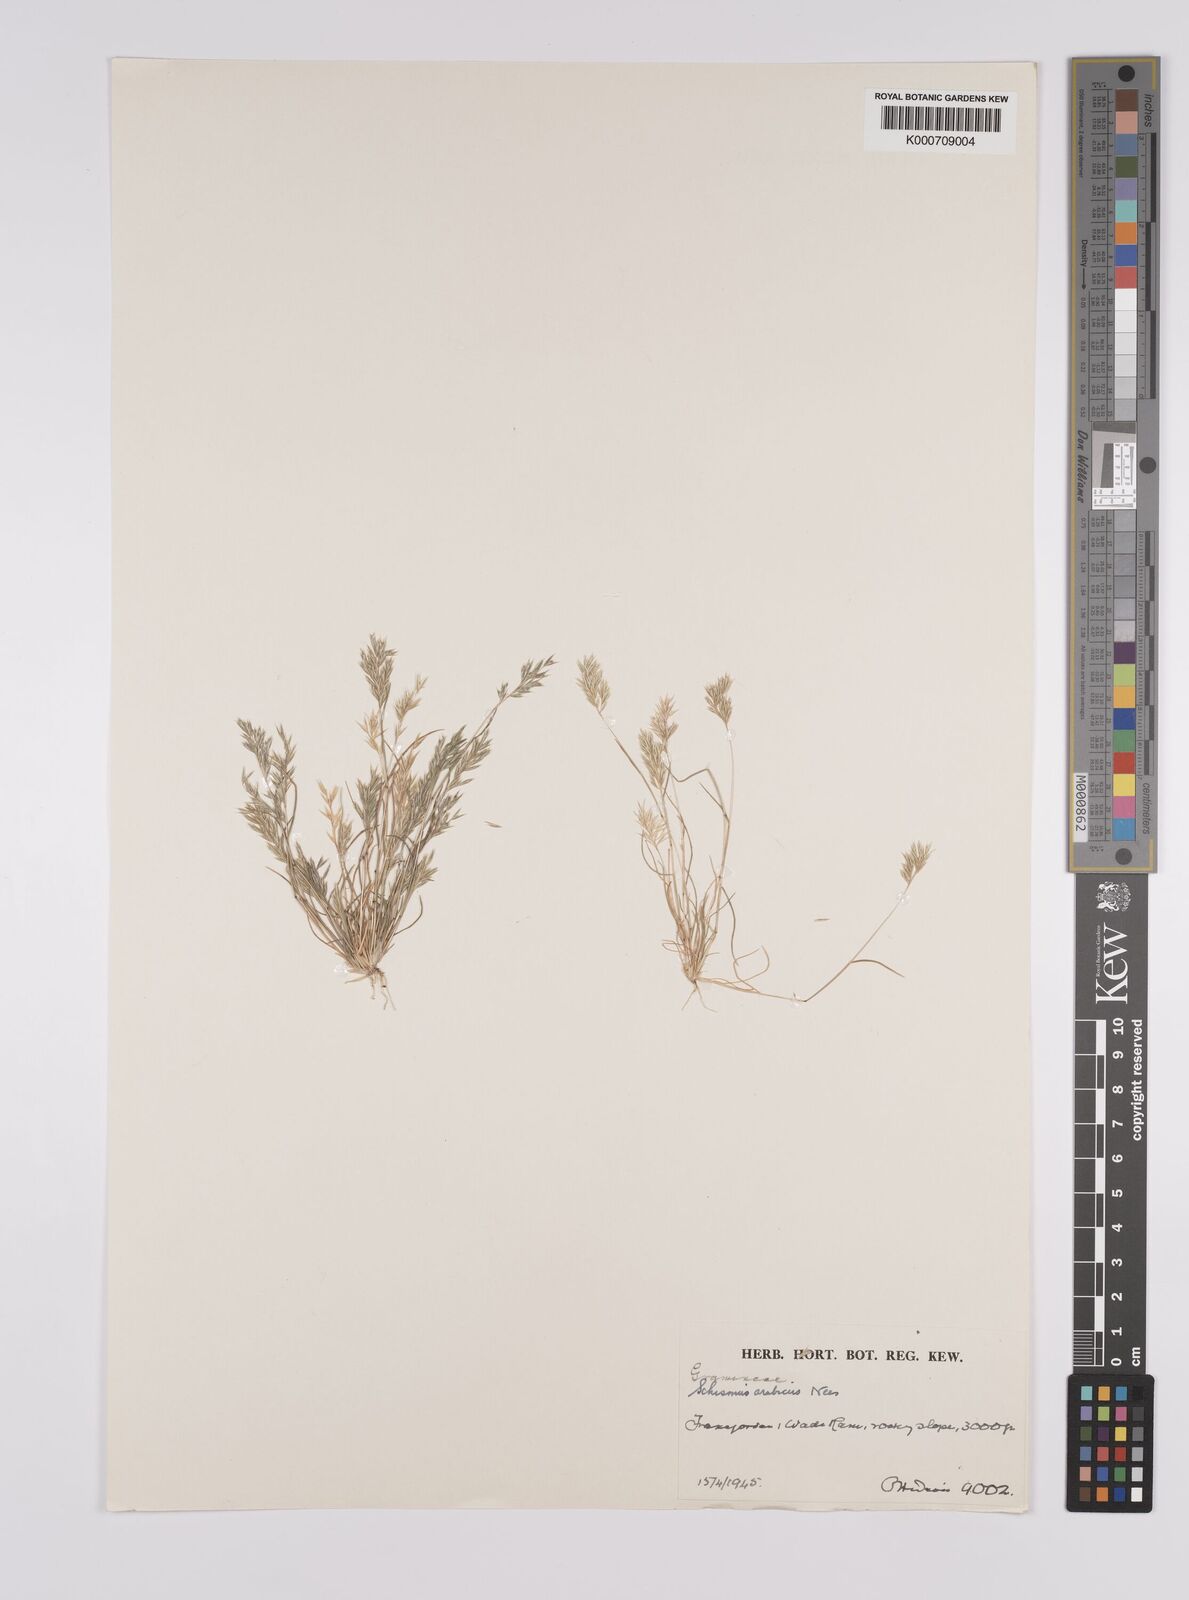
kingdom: Plantae
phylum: Tracheophyta
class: Liliopsida
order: Poales
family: Poaceae
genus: Schismus
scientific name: Schismus arabicus
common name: Arabian schismus
